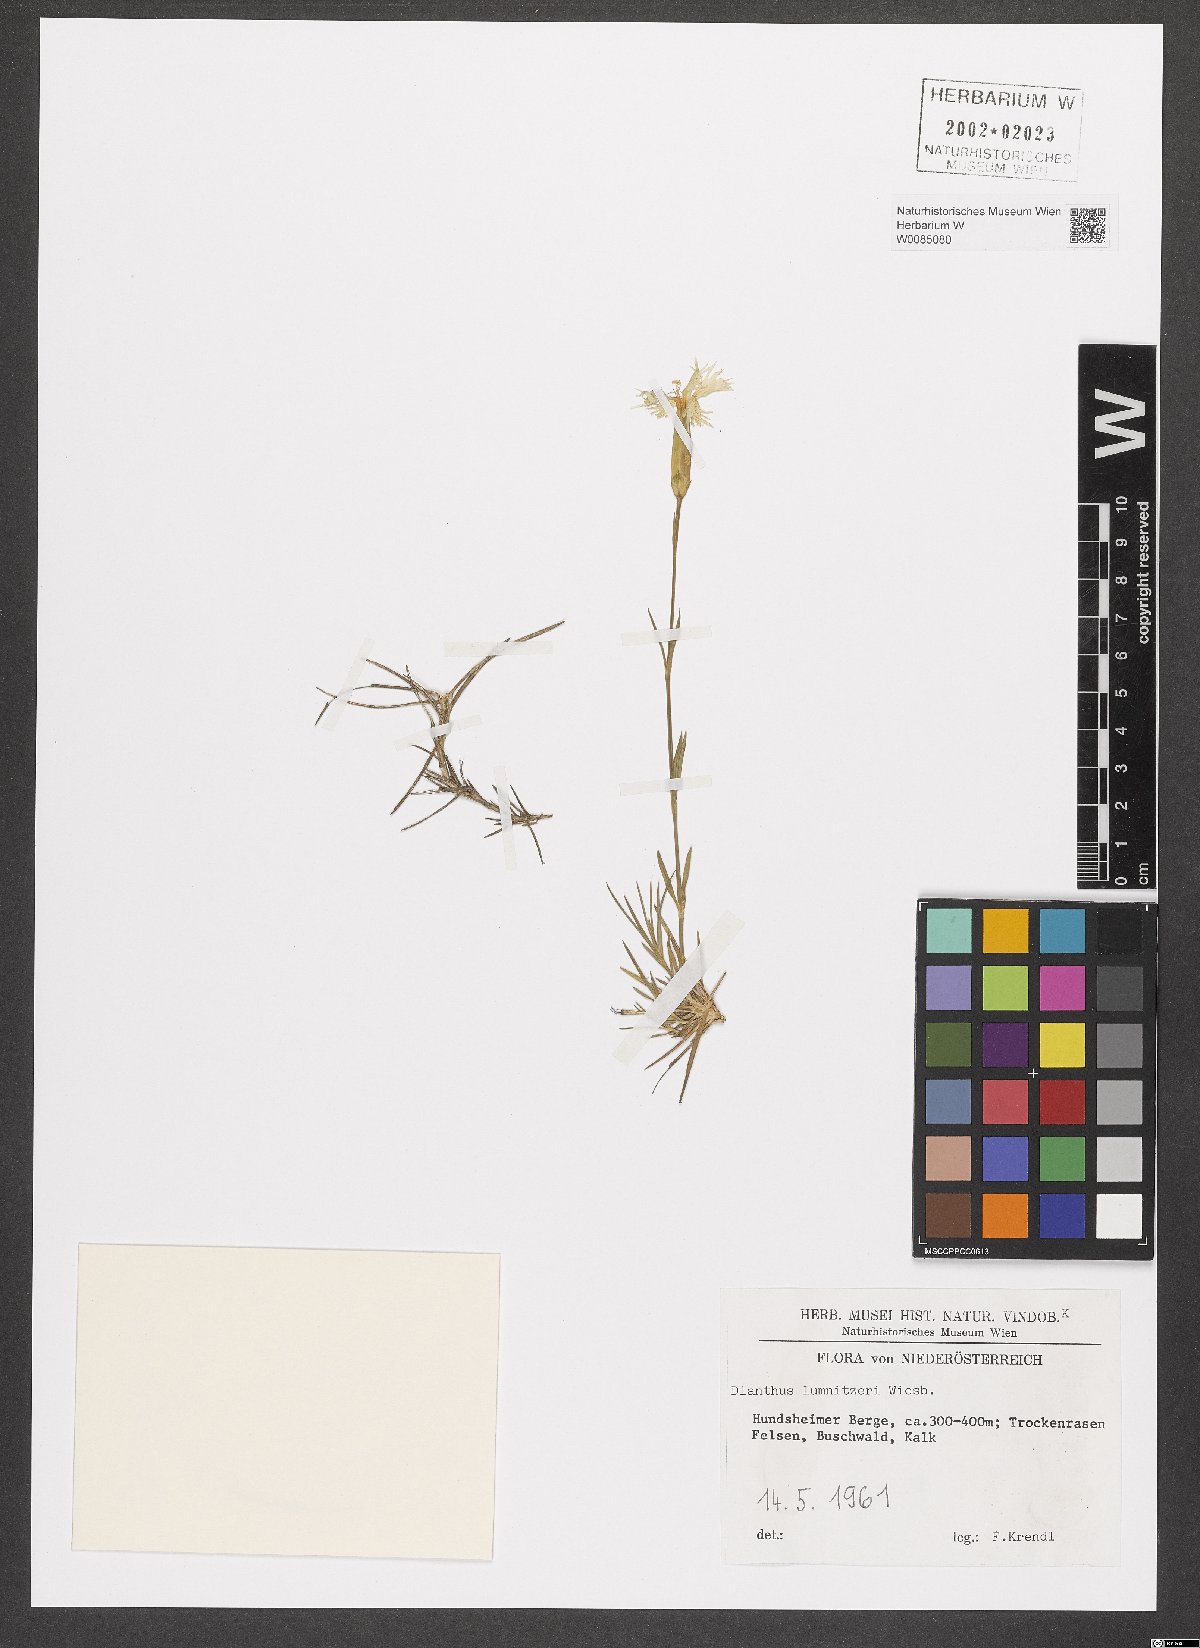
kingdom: Plantae
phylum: Tracheophyta
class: Magnoliopsida
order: Caryophyllales
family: Caryophyllaceae
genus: Dianthus
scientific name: Dianthus praecox
